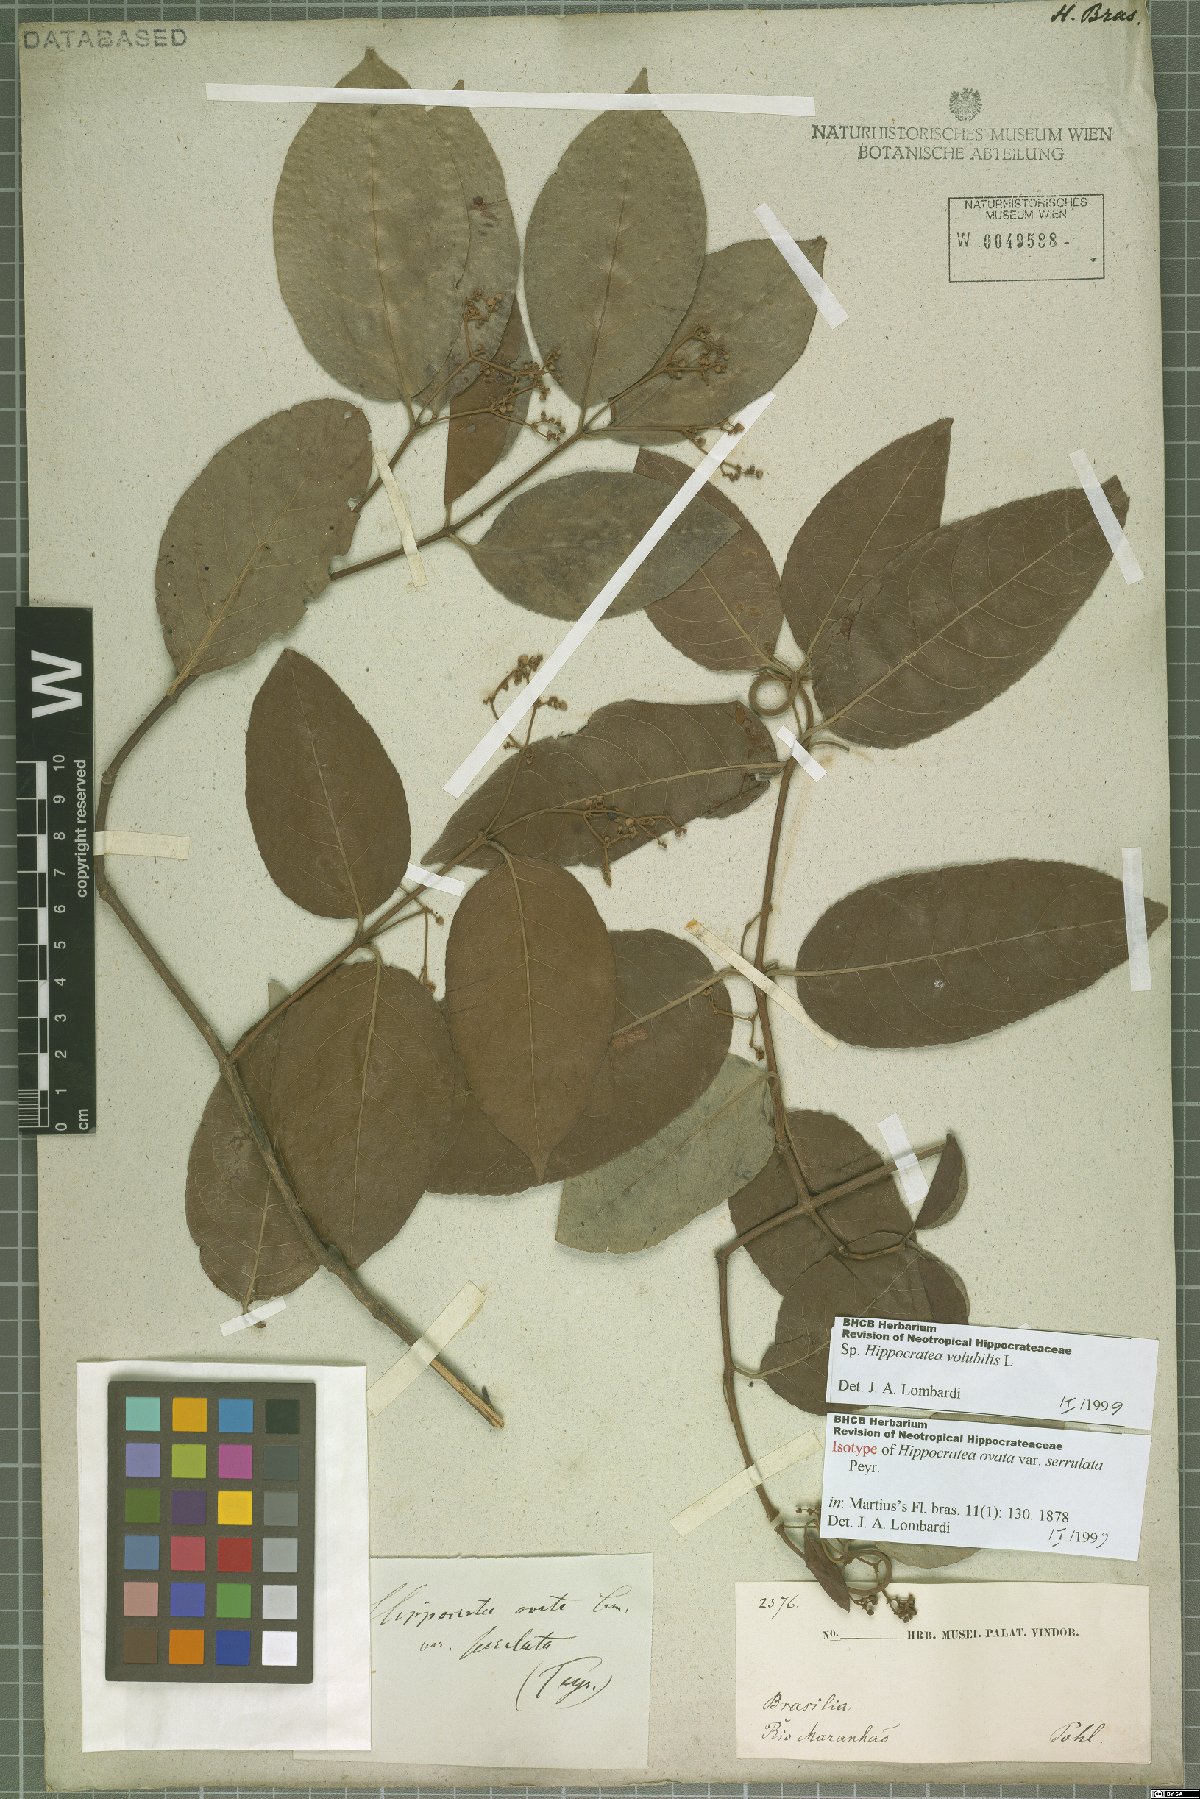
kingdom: Plantae
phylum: Tracheophyta
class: Magnoliopsida
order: Celastrales
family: Celastraceae
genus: Hippocratea
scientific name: Hippocratea volubilis
